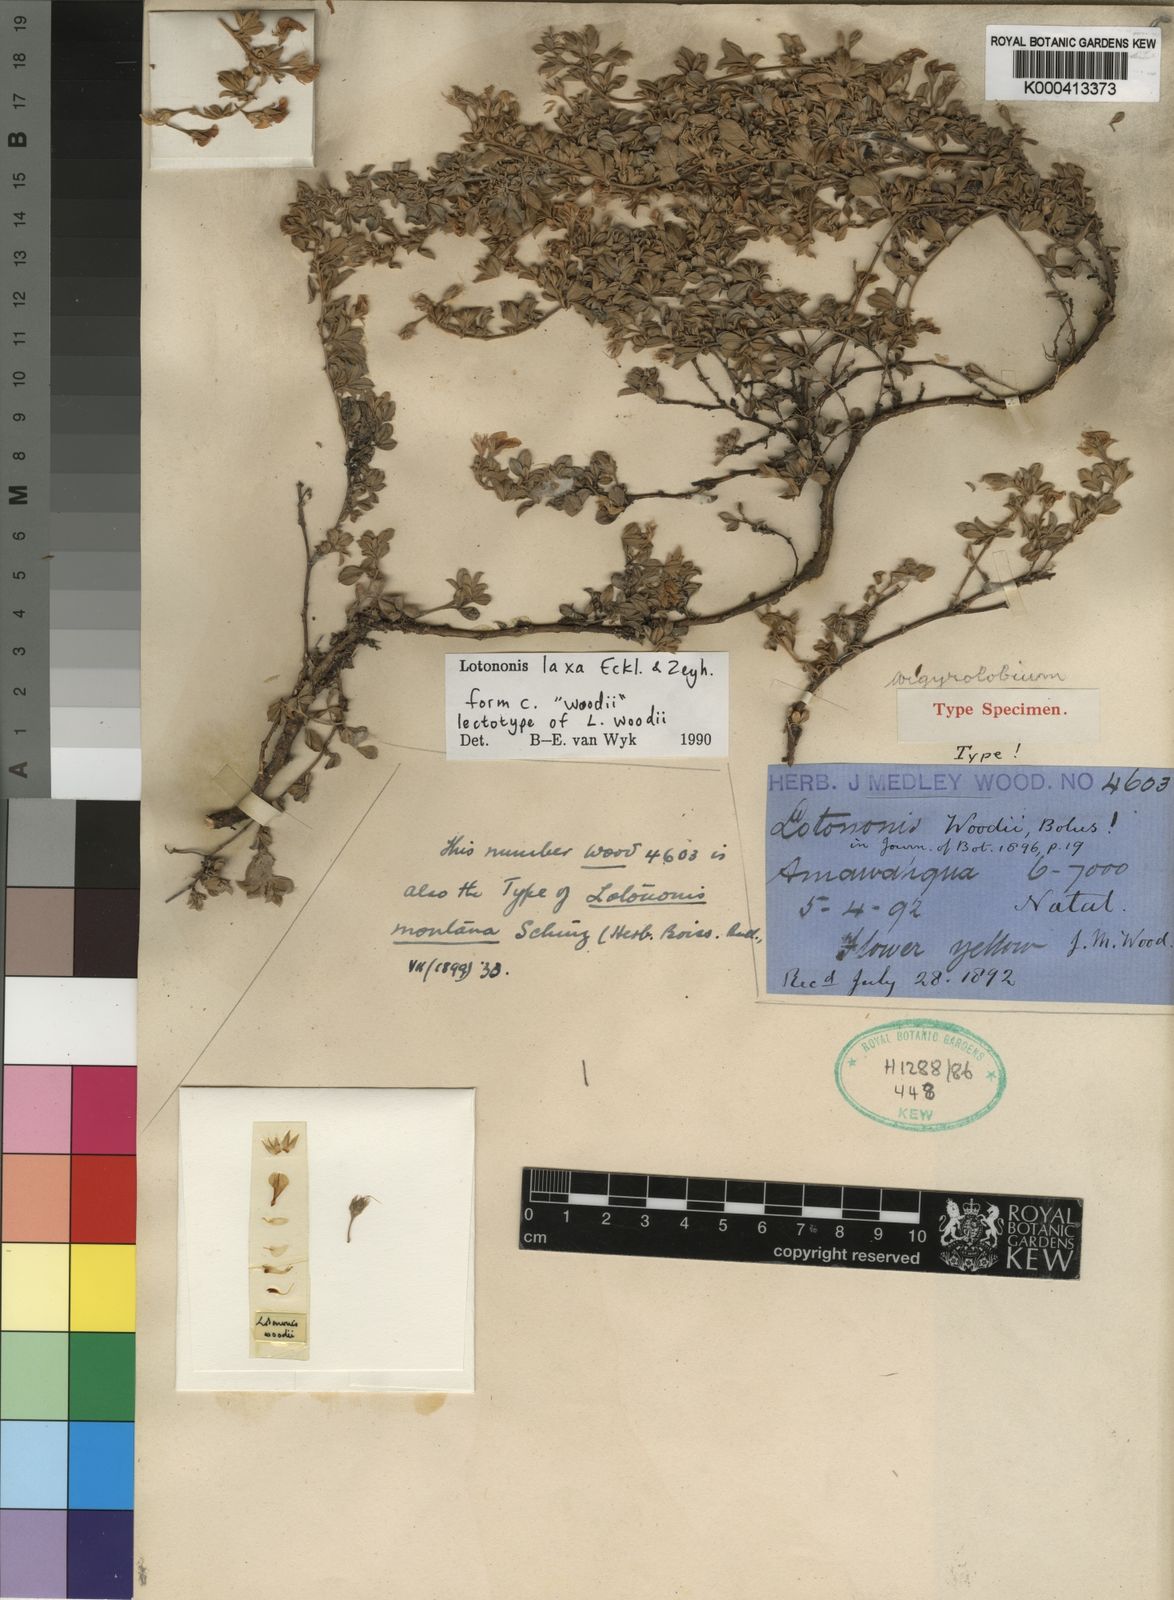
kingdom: Plantae
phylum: Tracheophyta
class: Magnoliopsida
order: Fabales
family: Fabaceae
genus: Lotononis
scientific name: Lotononis laxa
